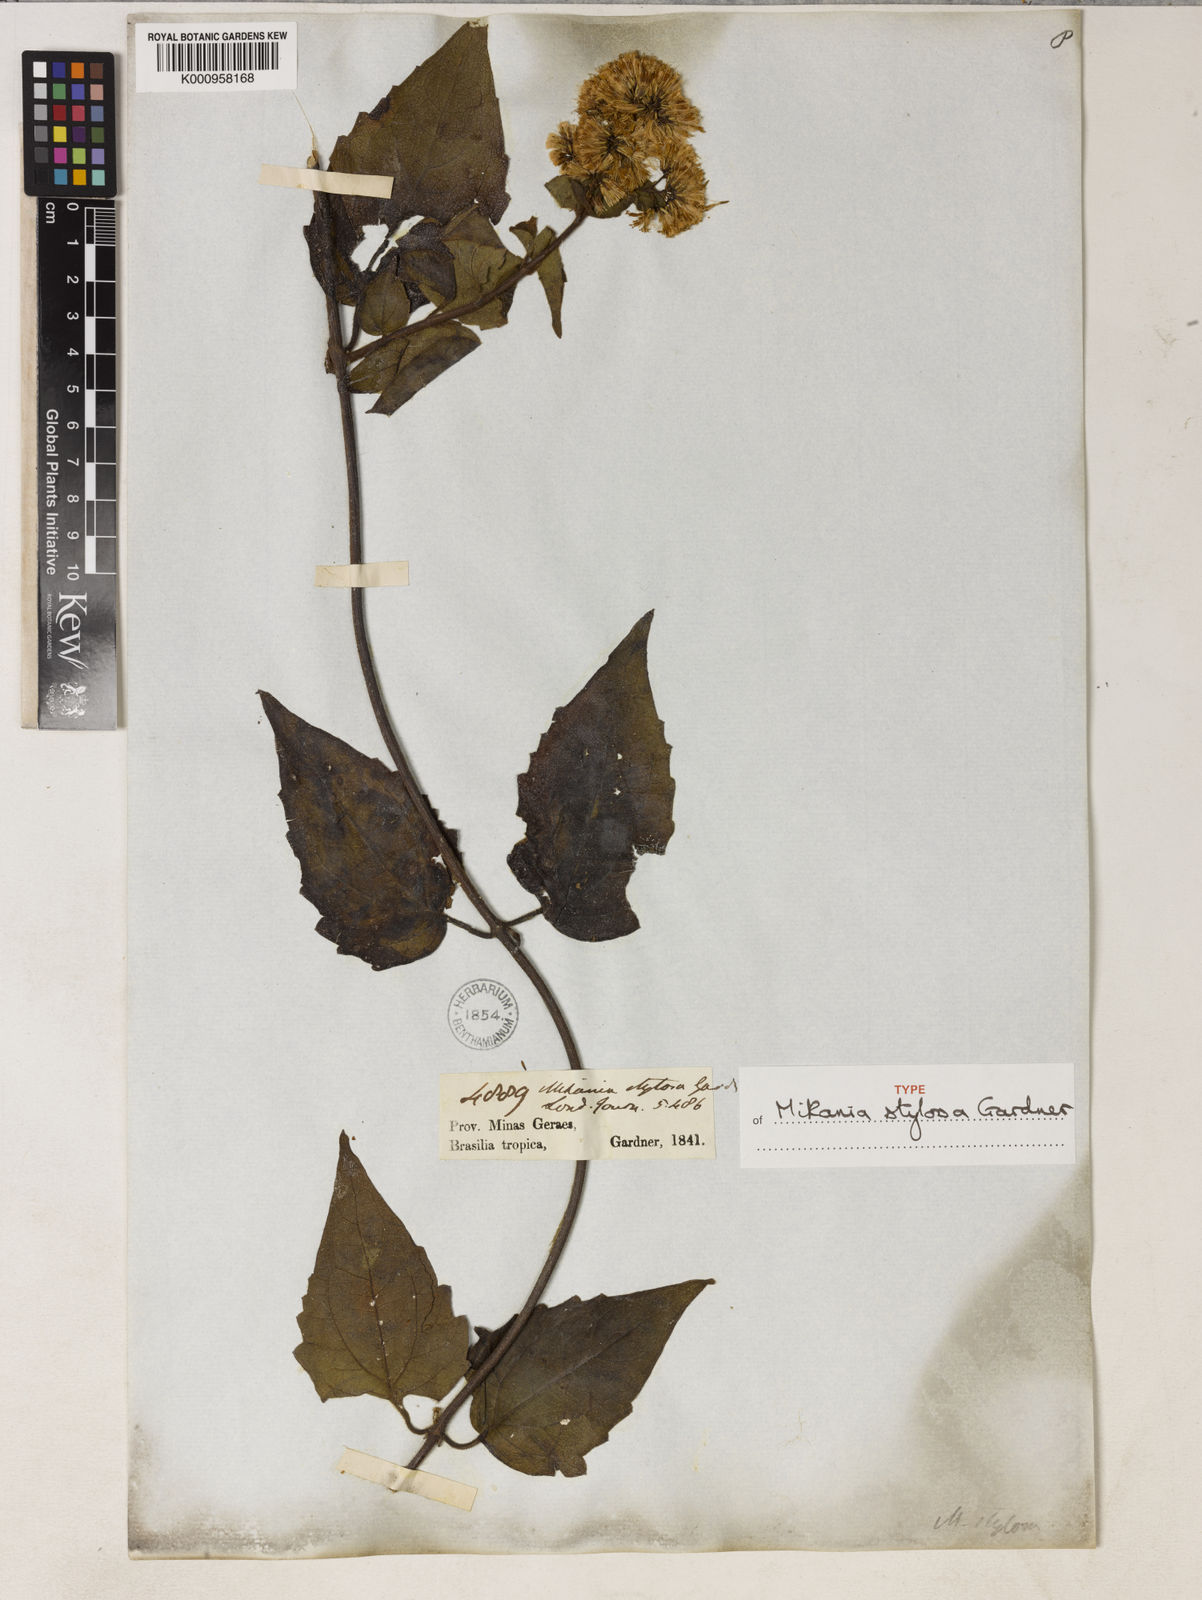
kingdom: Plantae
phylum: Tracheophyta
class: Magnoliopsida
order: Asterales
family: Asteraceae
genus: Mikania
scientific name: Mikania stylosa
